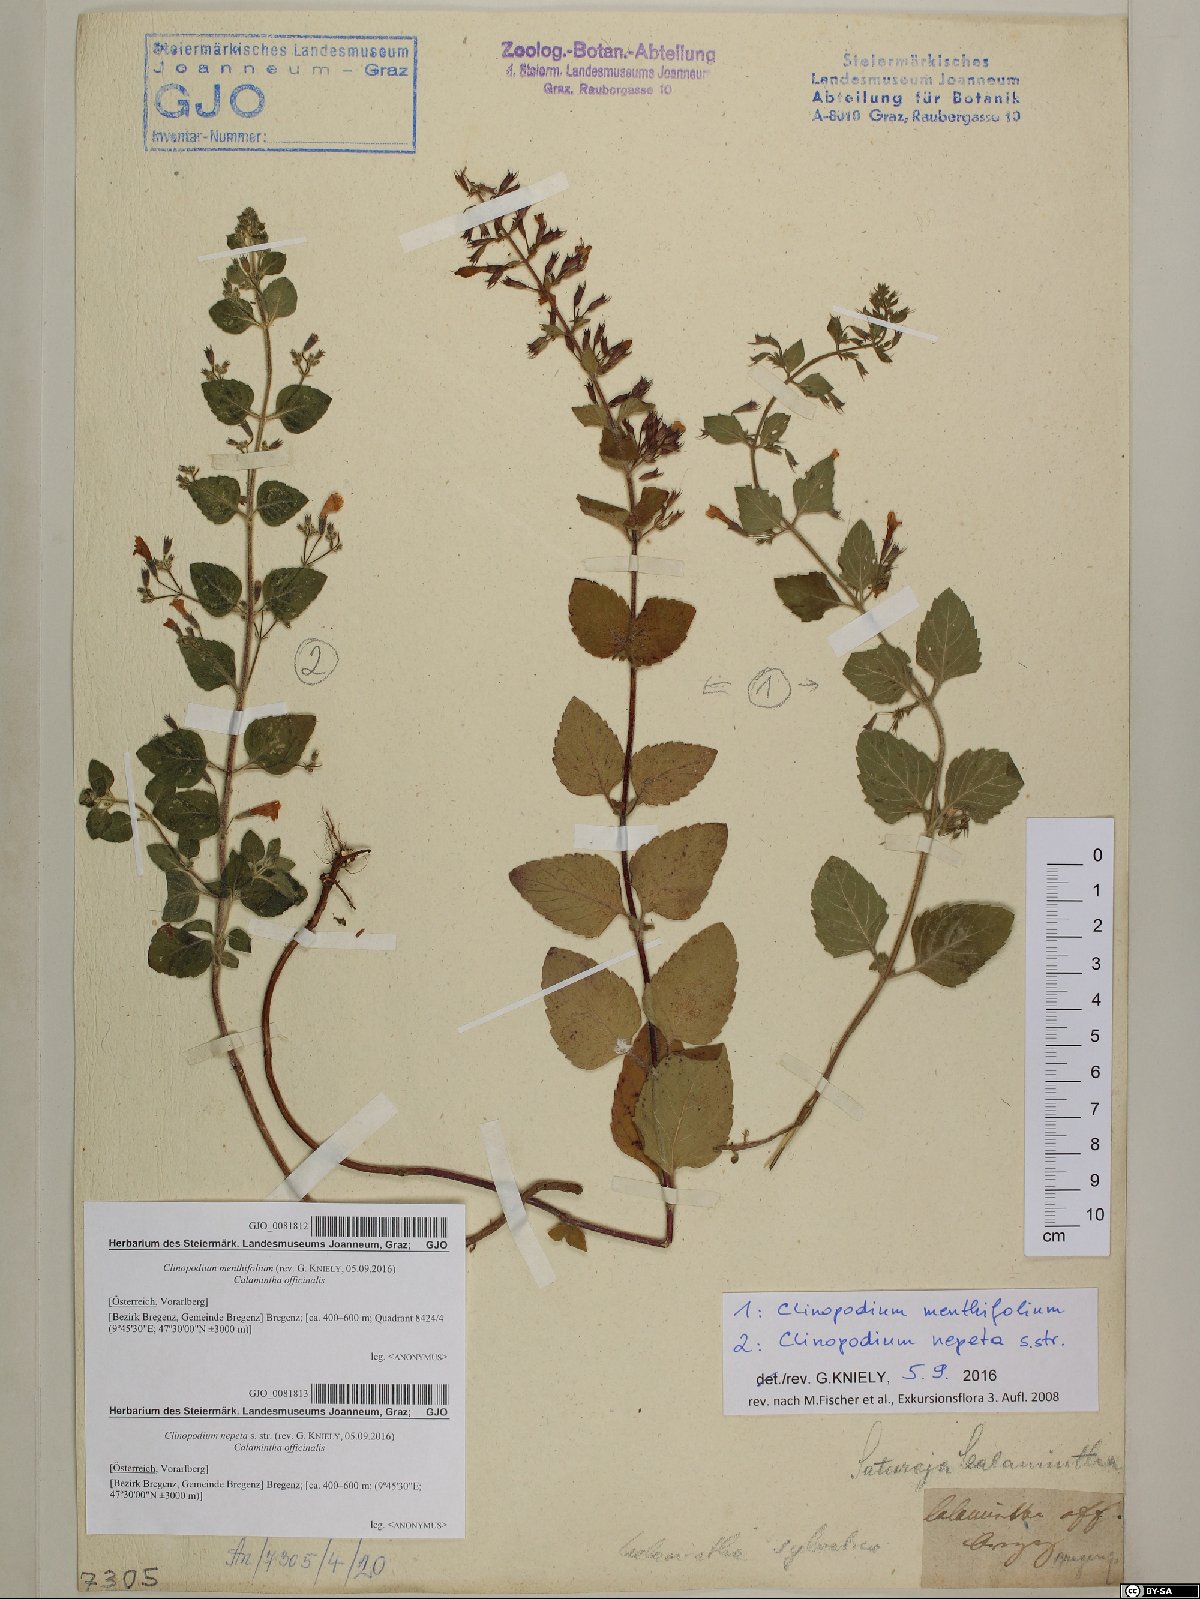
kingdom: Plantae
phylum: Tracheophyta
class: Magnoliopsida
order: Lamiales
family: Lamiaceae
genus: Clinopodium
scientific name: Clinopodium nepeta
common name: Lesser calamint
